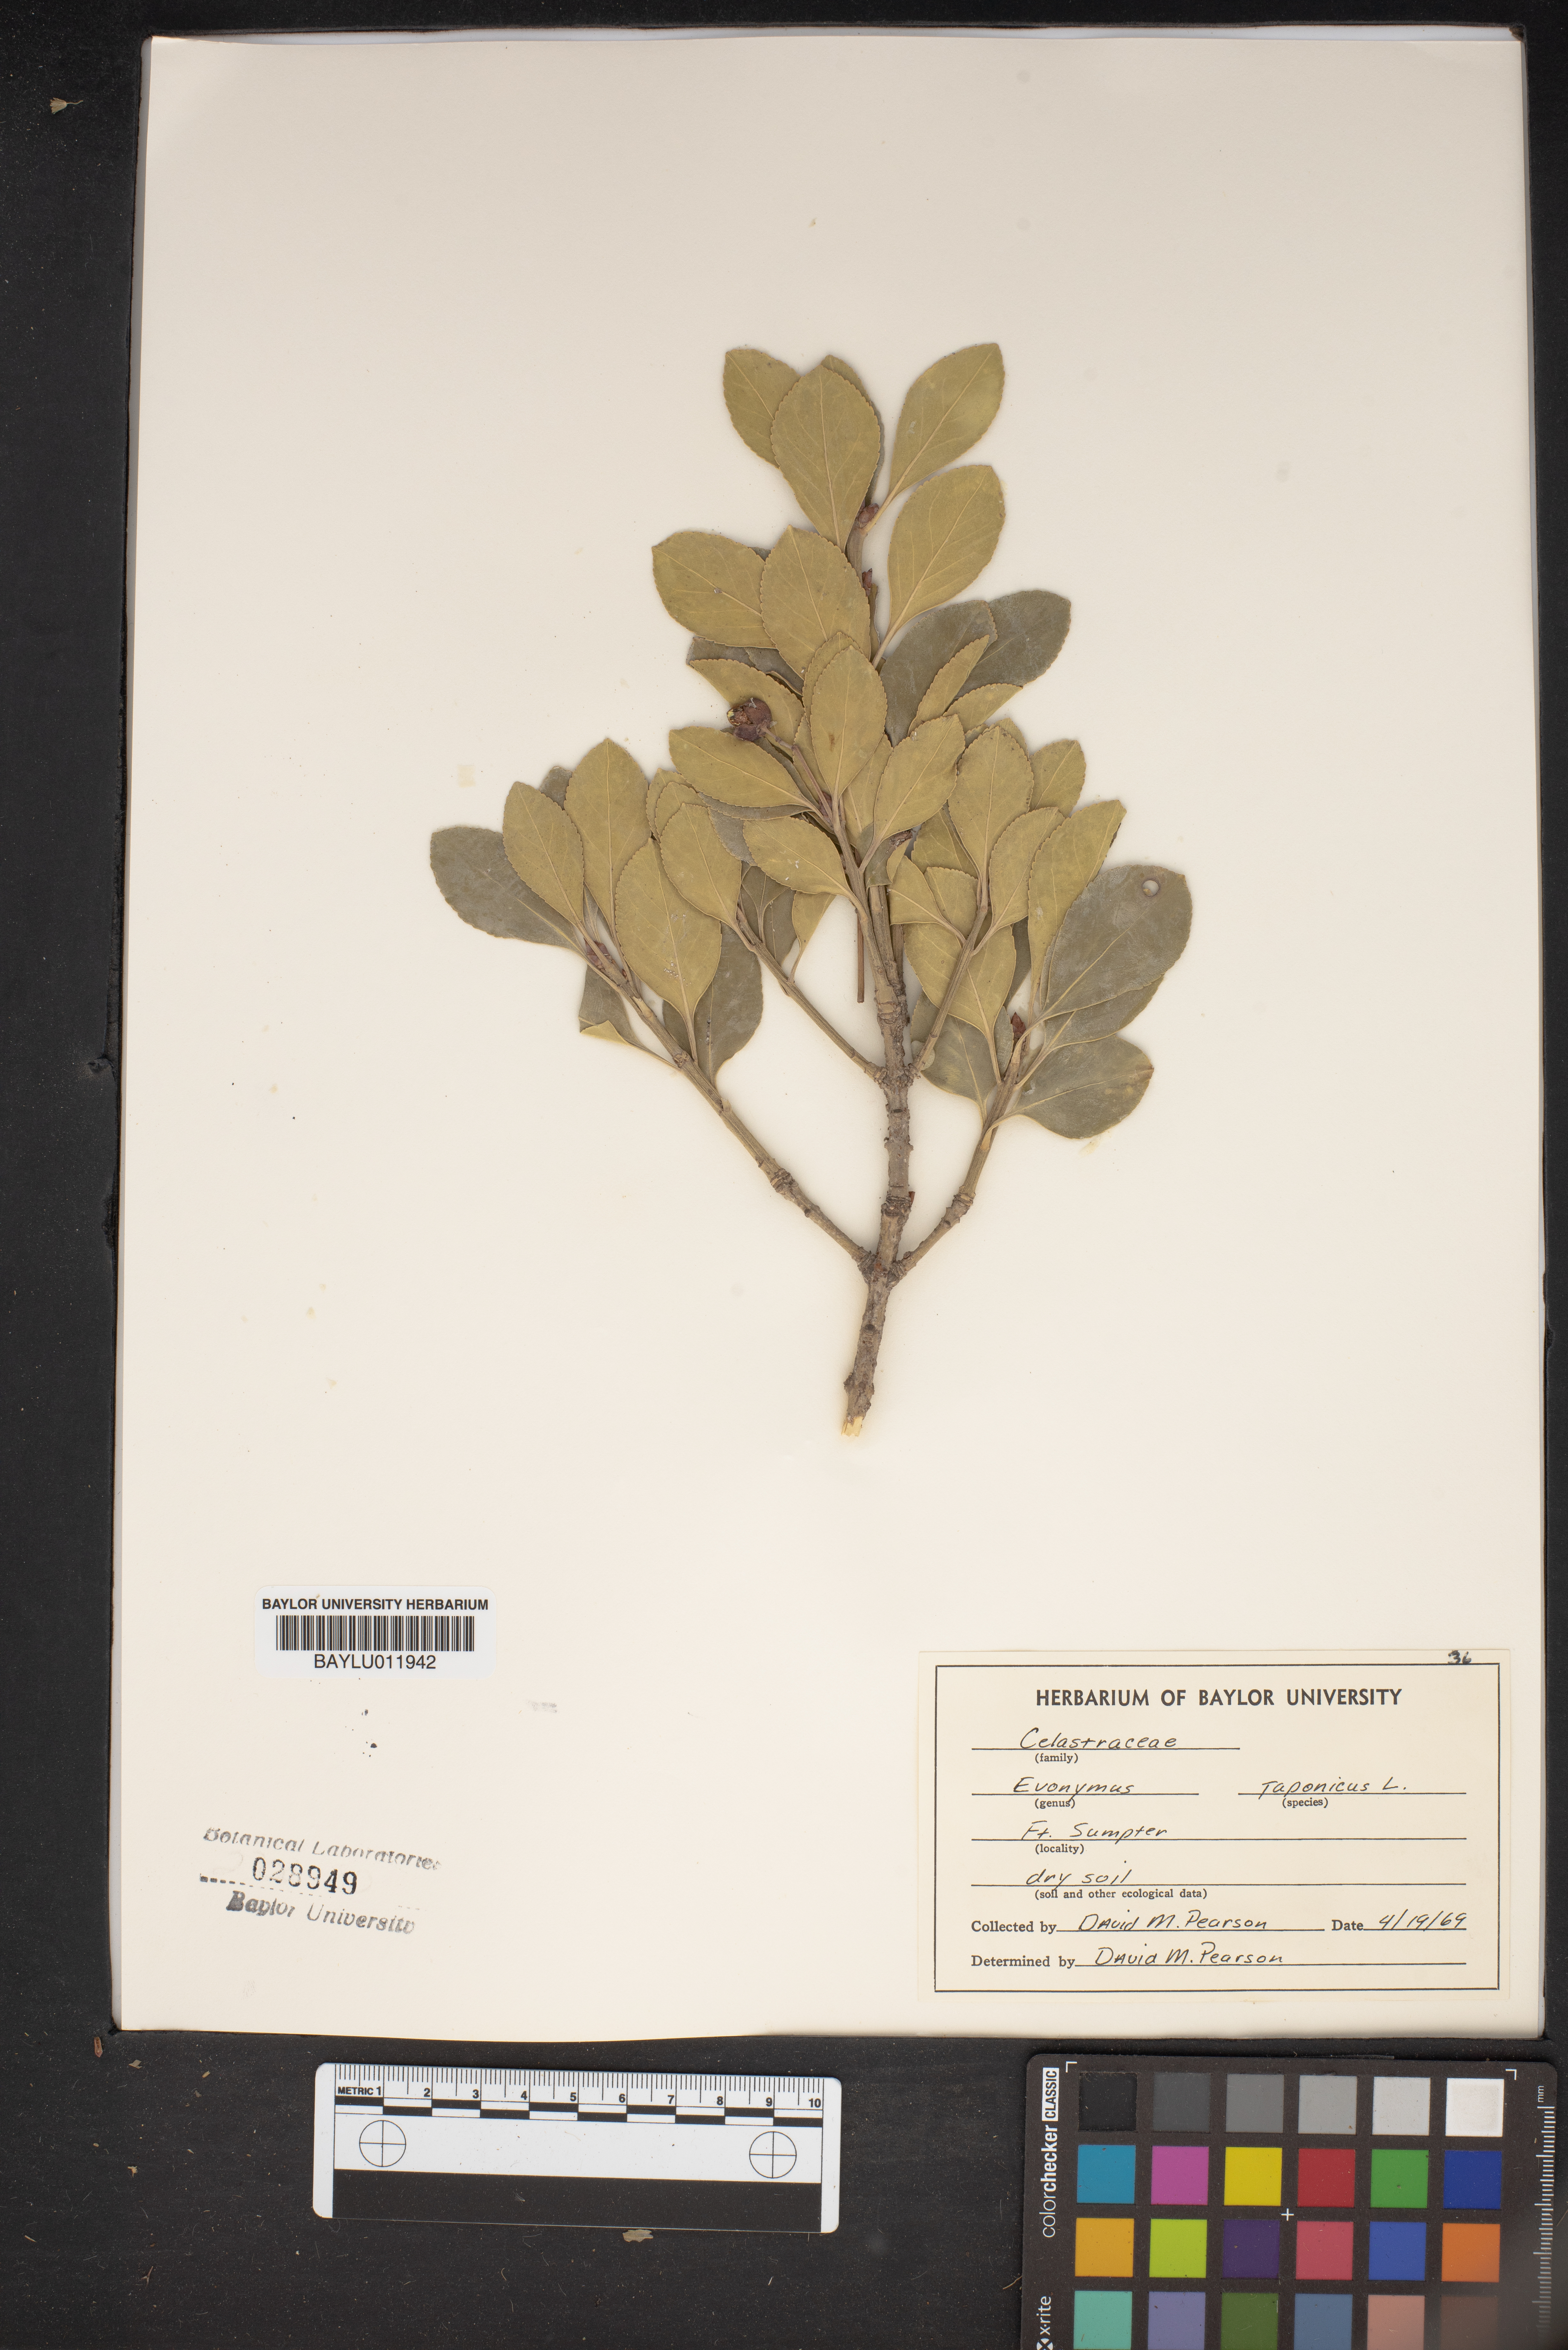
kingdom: Plantae
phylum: Tracheophyta
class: Magnoliopsida
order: Celastrales
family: Celastraceae
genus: Euonymus
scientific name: Euonymus japonicus
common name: Japanese spindletree
